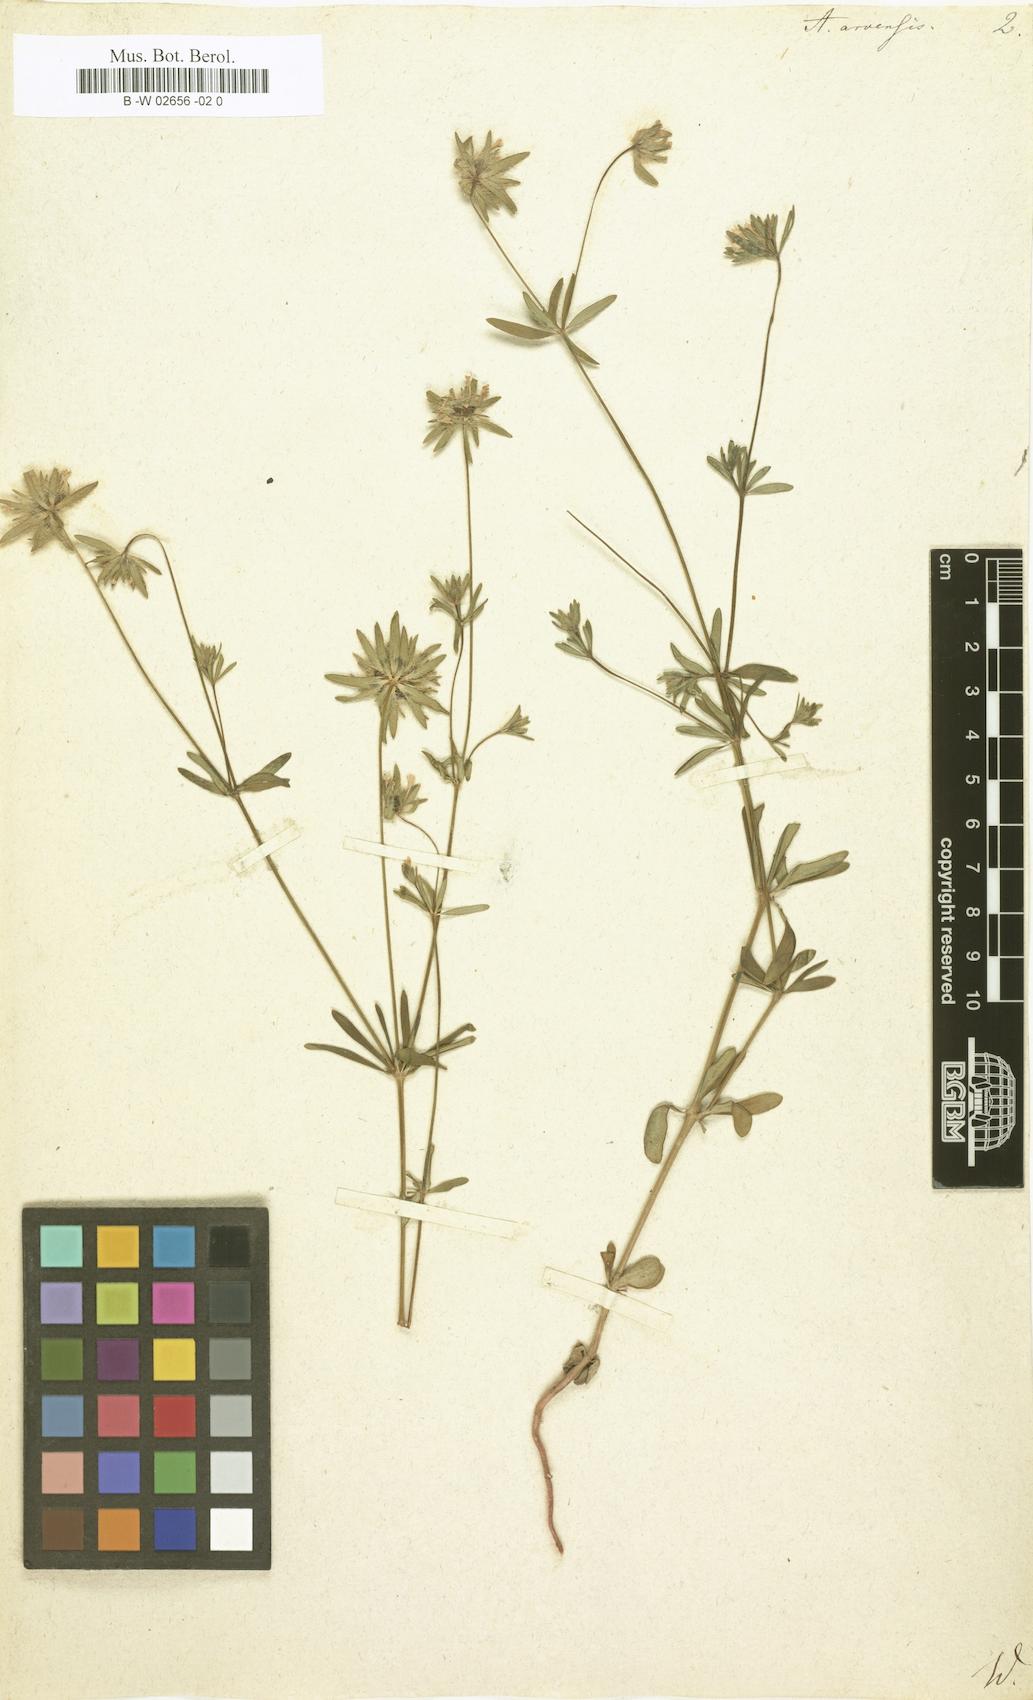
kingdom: Plantae
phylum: Tracheophyta
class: Magnoliopsida
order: Gentianales
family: Rubiaceae
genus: Asperula
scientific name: Asperula arvensis
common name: Blue woodruff
